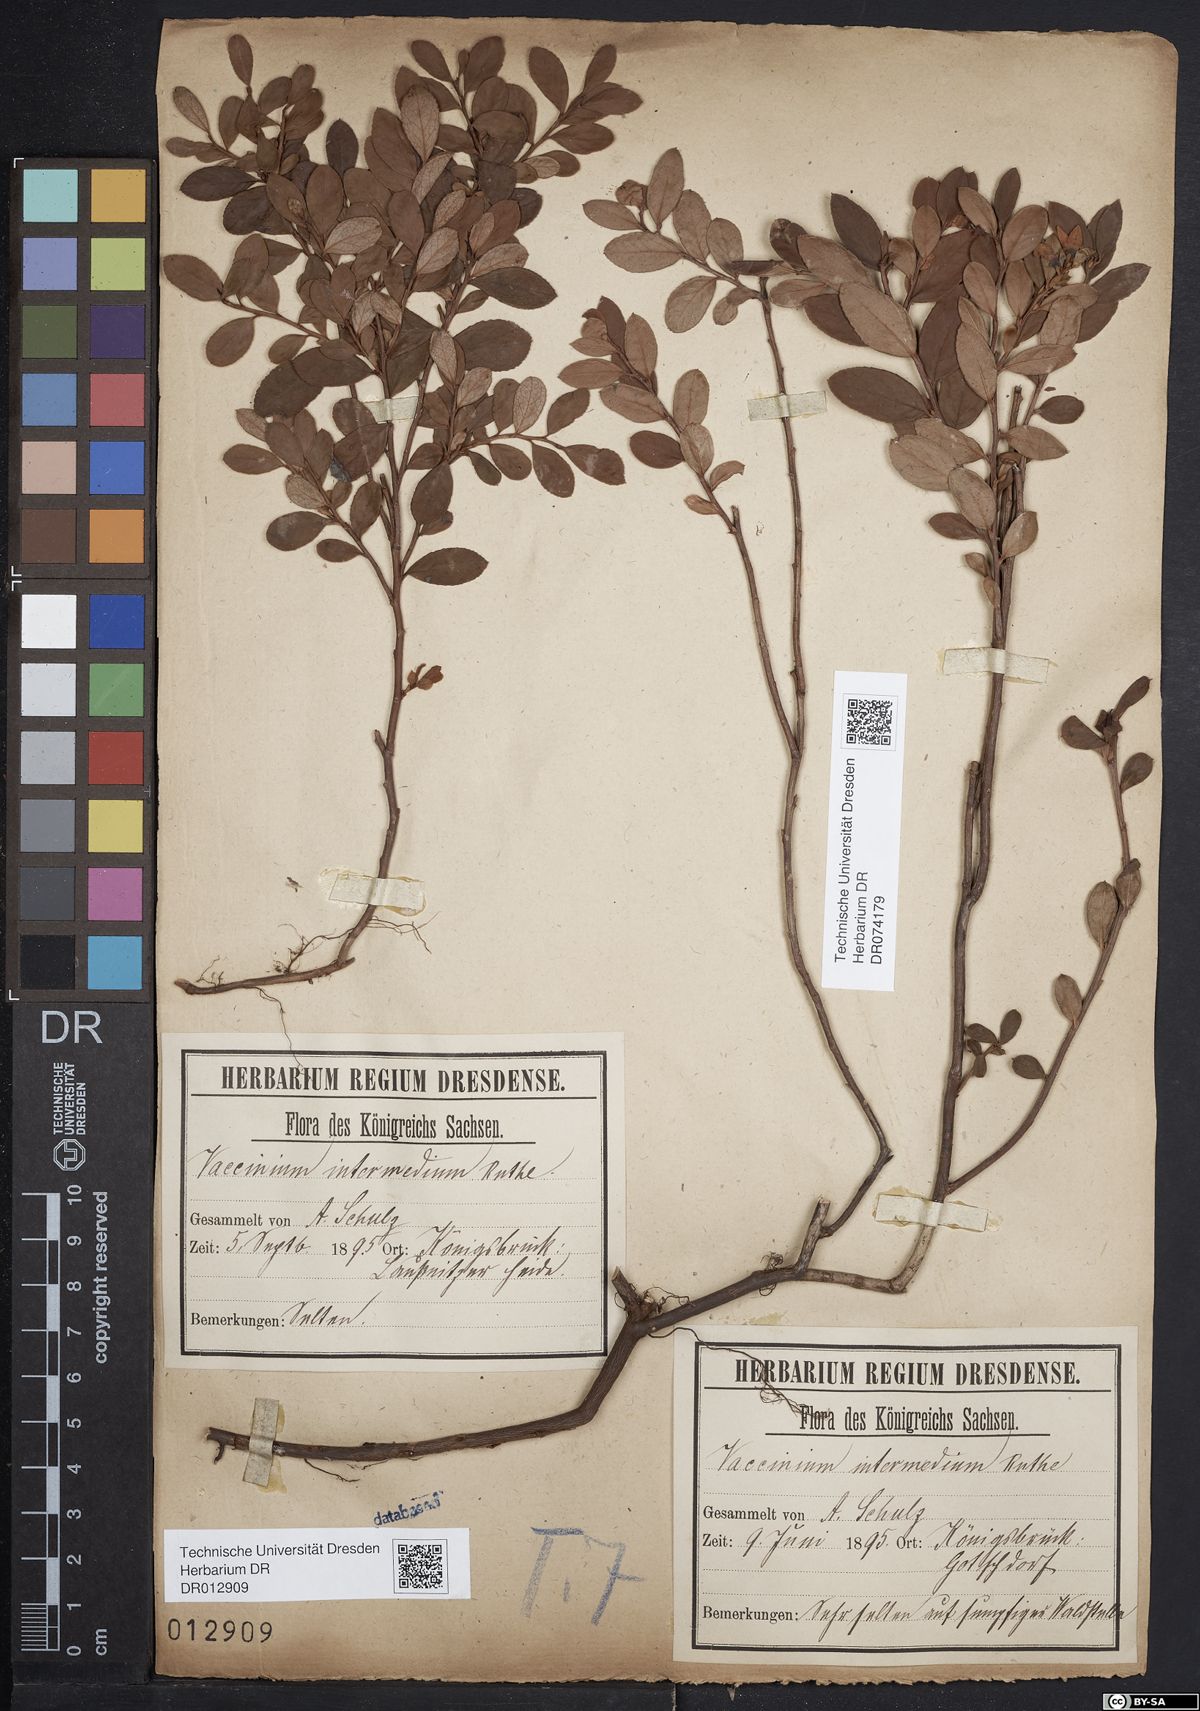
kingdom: Plantae
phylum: Tracheophyta
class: Magnoliopsida
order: Ericales
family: Ericaceae
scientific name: Ericaceae
